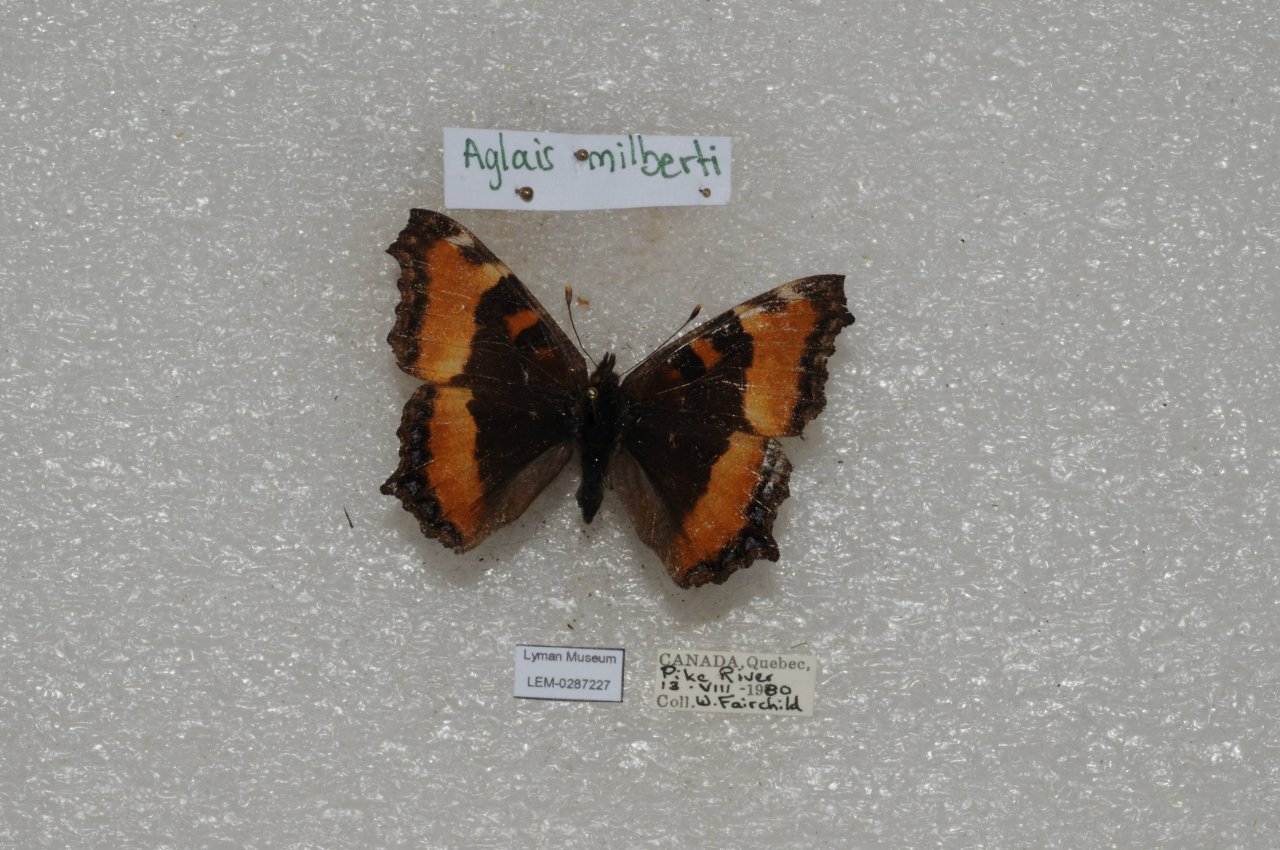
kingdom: Animalia
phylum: Arthropoda
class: Insecta
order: Lepidoptera
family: Nymphalidae
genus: Aglais
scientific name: Aglais milberti
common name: Milbert's Tortoiseshell
